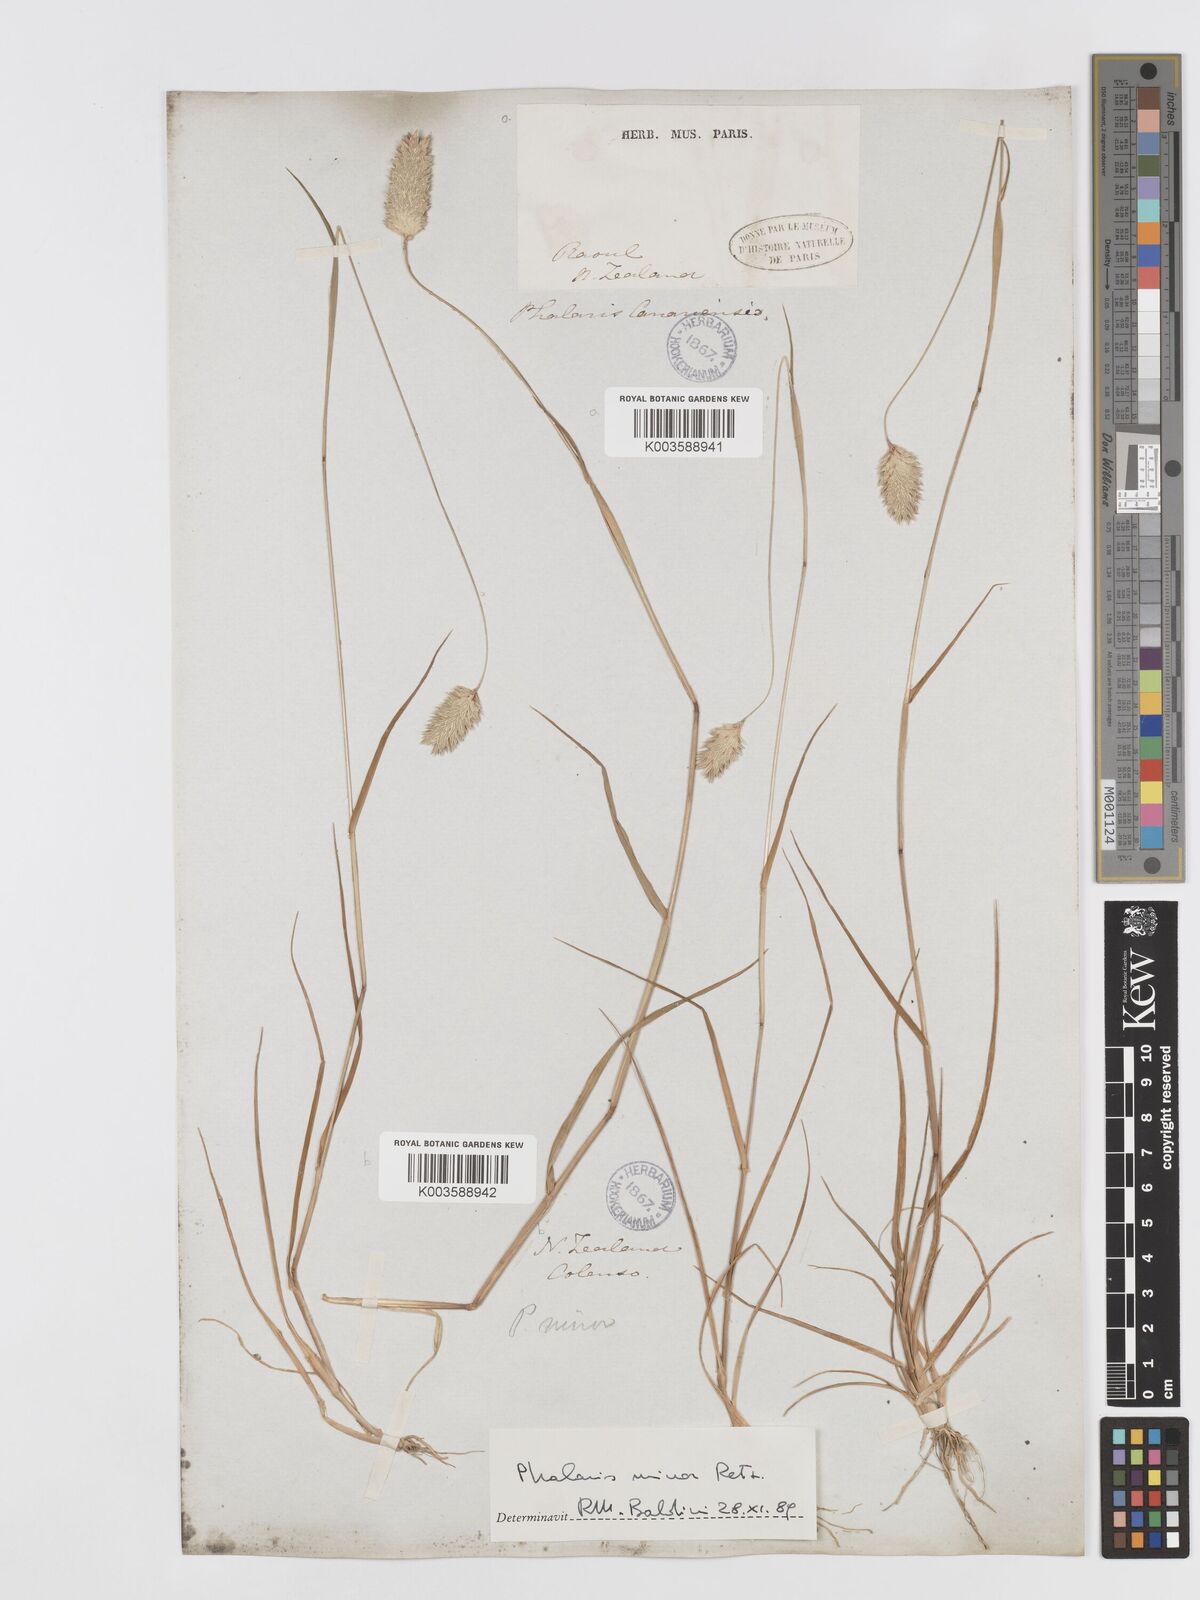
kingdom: Plantae
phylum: Tracheophyta
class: Liliopsida
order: Poales
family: Poaceae
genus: Phalaris
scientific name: Phalaris minor
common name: Littleseed canarygrass
